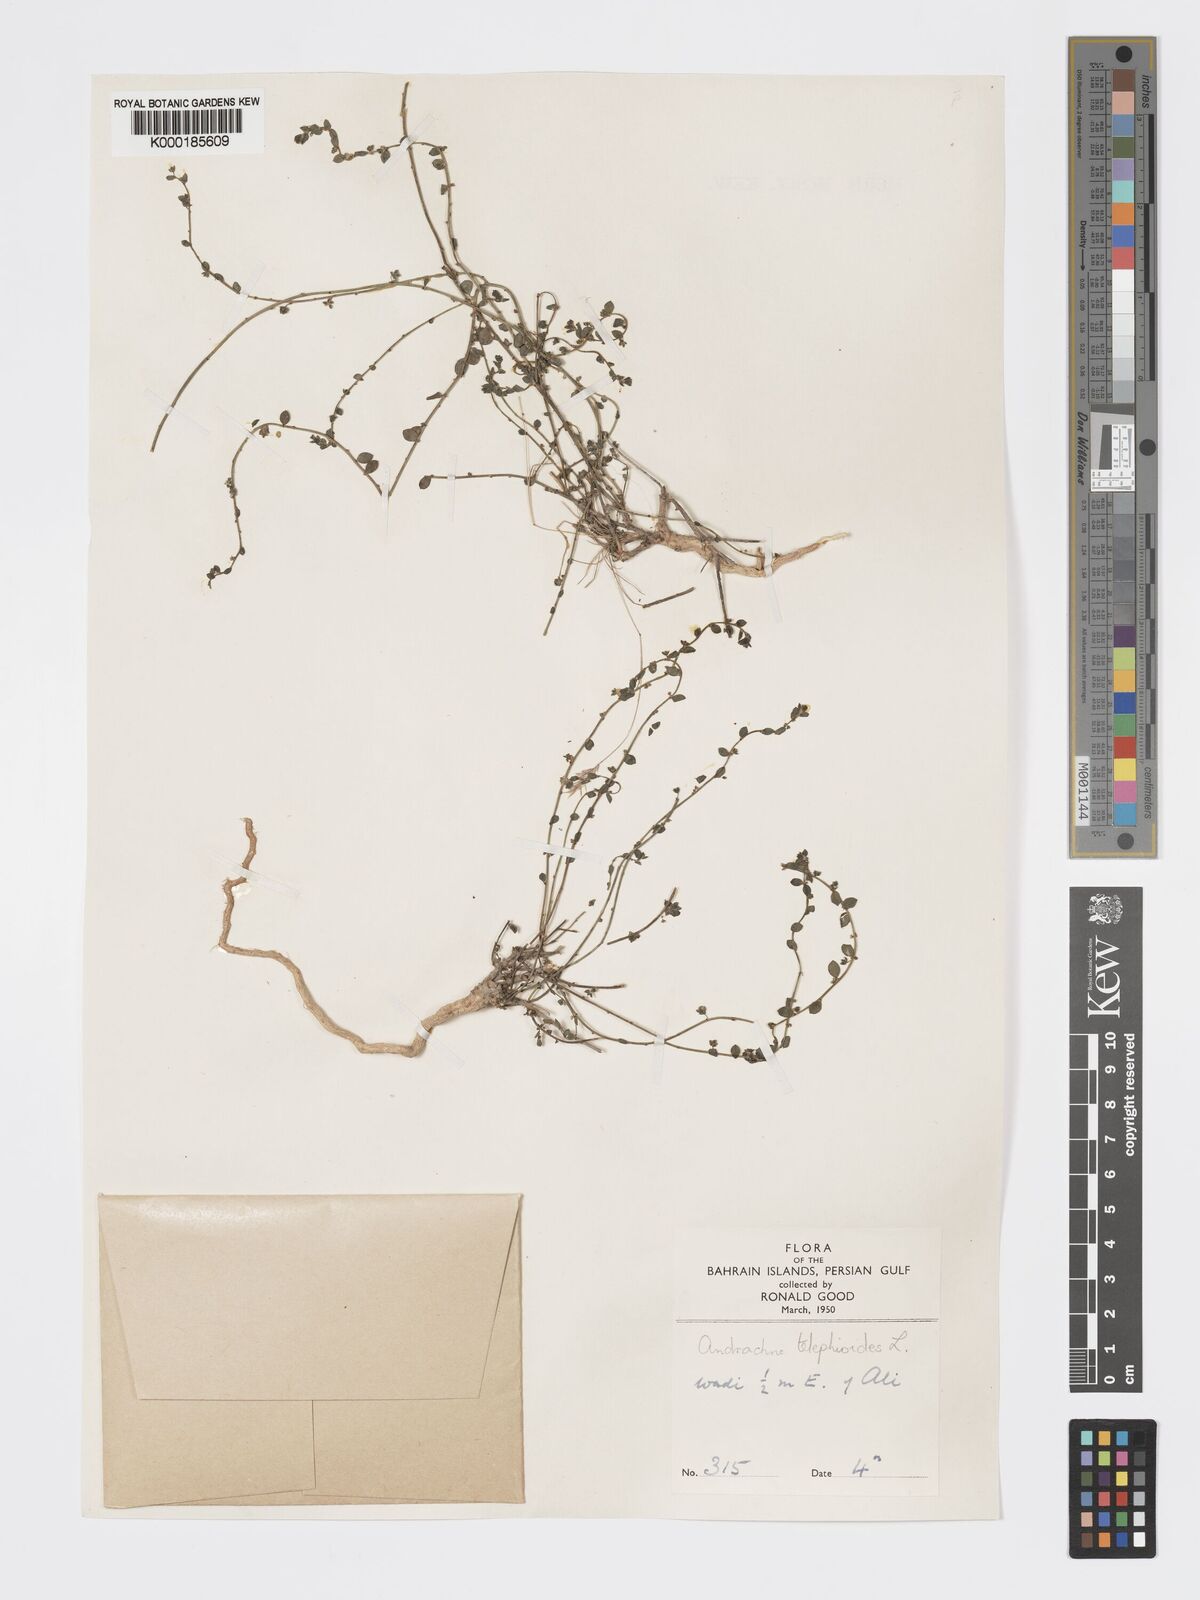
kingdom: Plantae
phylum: Tracheophyta
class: Magnoliopsida
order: Malpighiales
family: Phyllanthaceae
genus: Andrachne
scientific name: Andrachne telephioides
